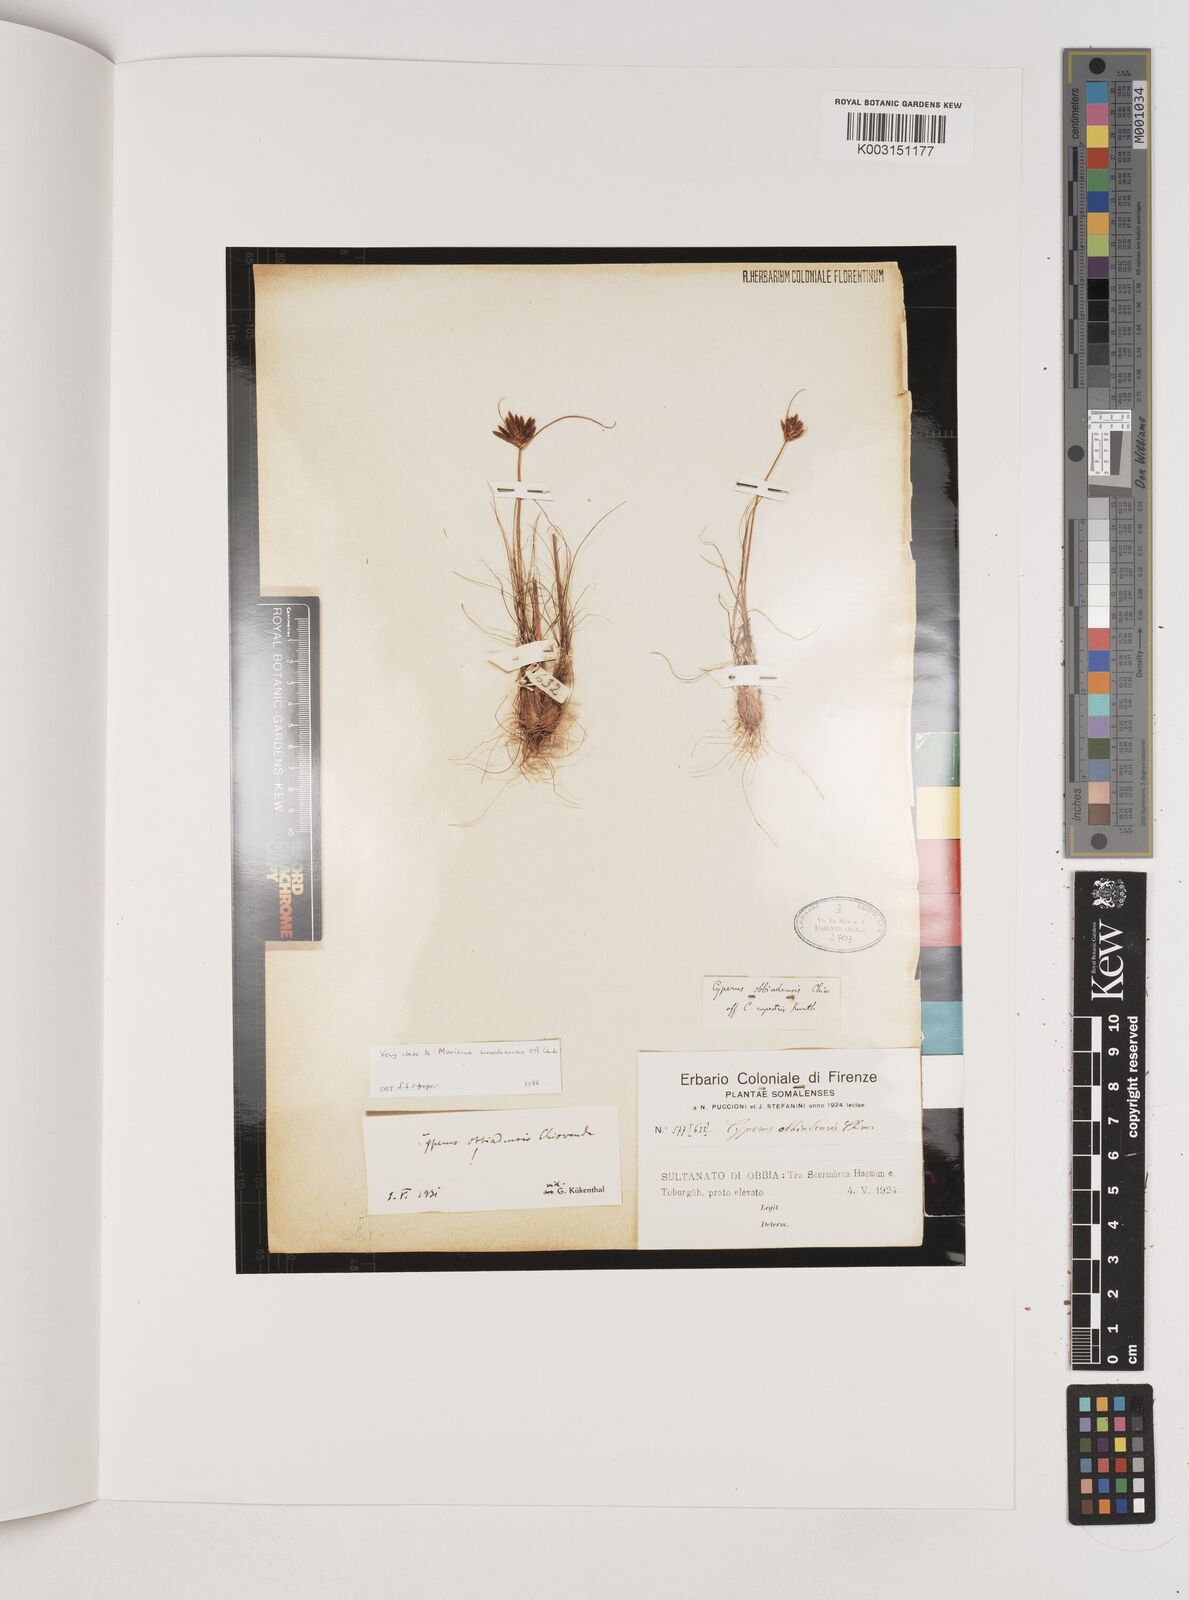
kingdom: Plantae
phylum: Tracheophyta
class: Liliopsida
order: Poales
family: Cyperaceae
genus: Cyperus
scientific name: Cyperus obbiadensis
